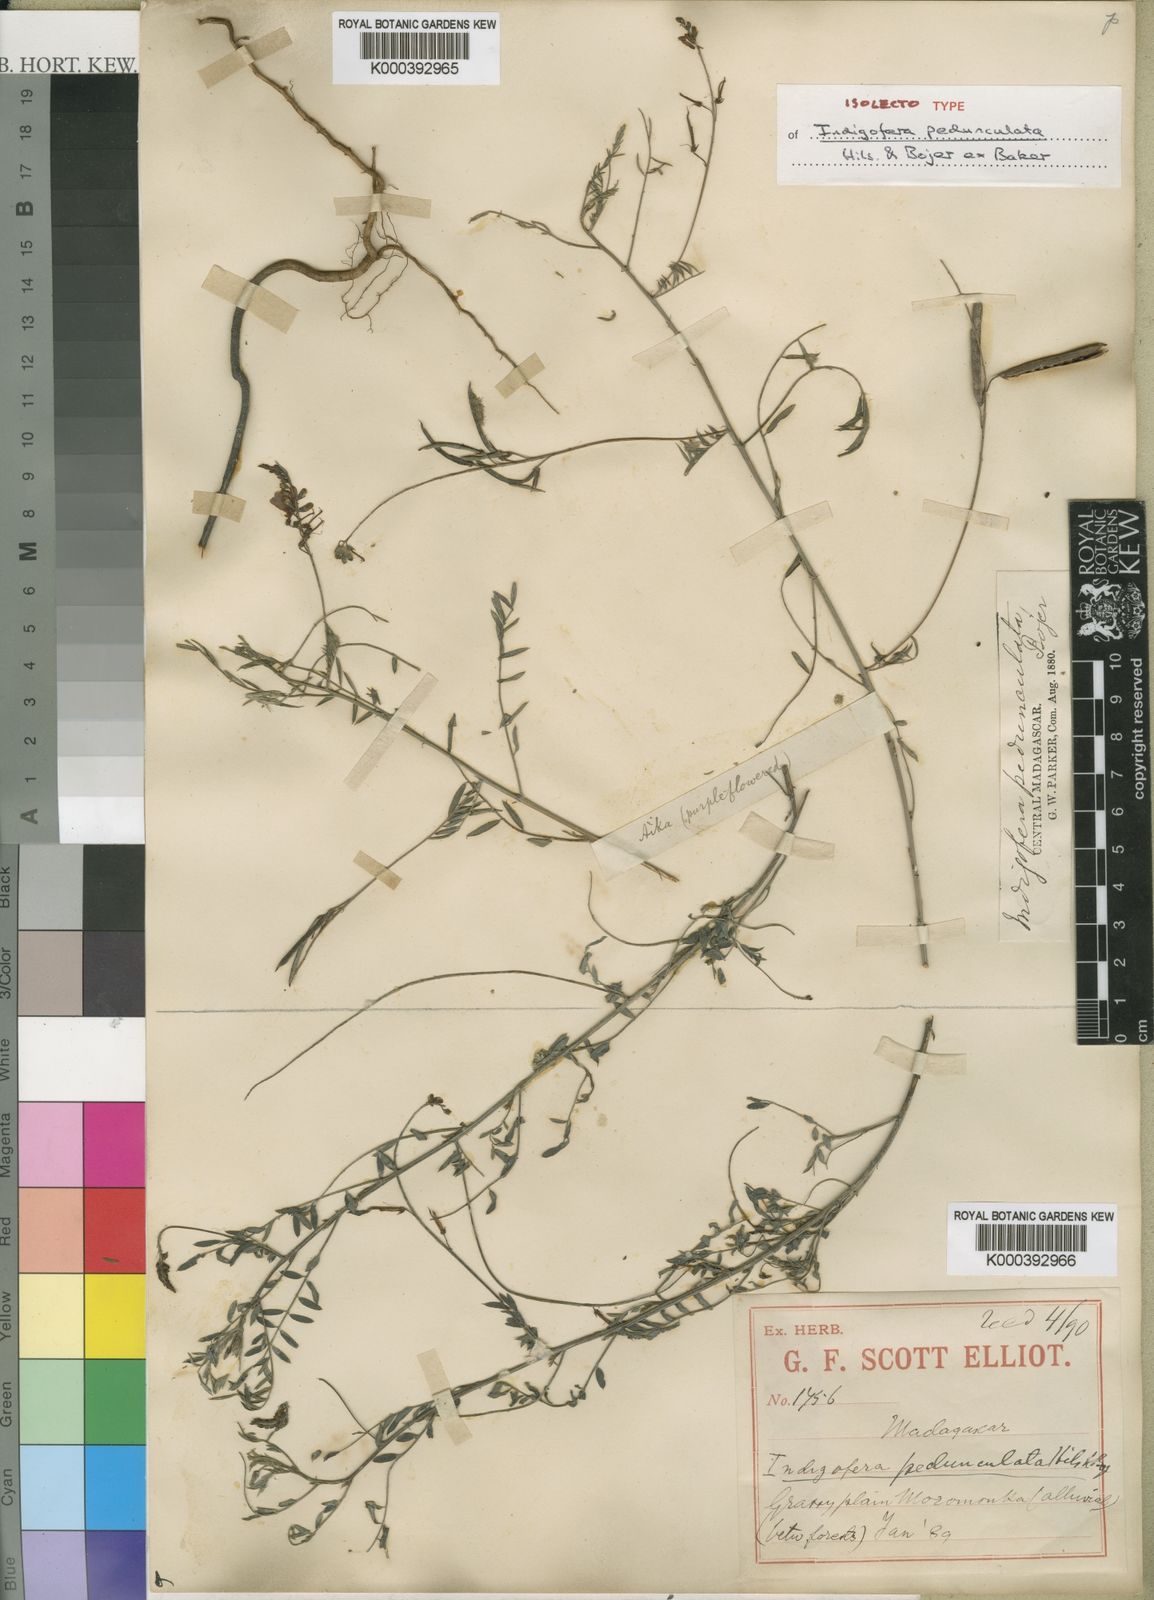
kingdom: Plantae
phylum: Tracheophyta
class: Magnoliopsida
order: Fabales
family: Fabaceae
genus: Indigofera
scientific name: Indigofera pedunculata
